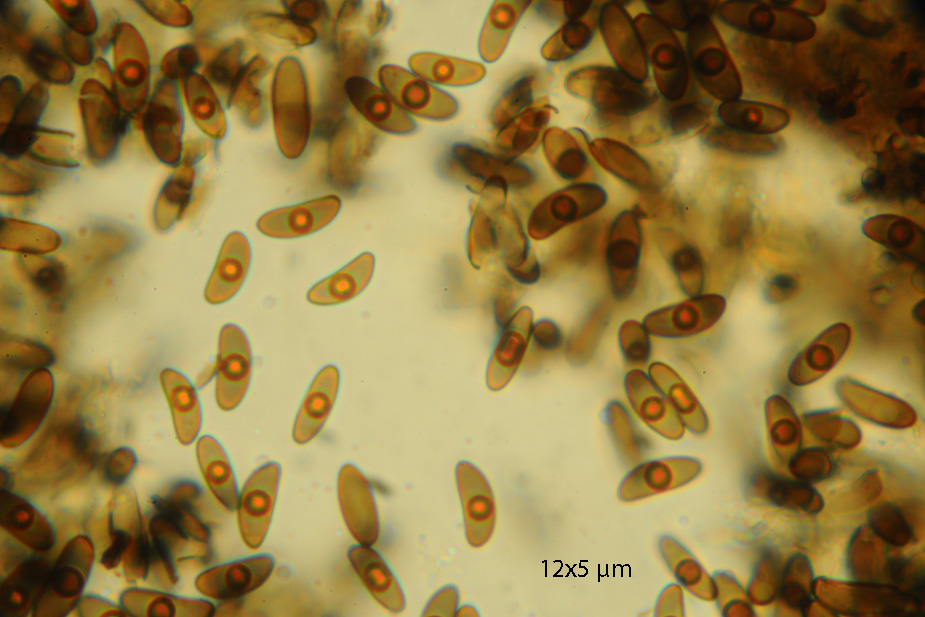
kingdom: Fungi
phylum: Ascomycota
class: Sordariomycetes
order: Xylariales
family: Xylariaceae
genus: Nemania
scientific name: Nemania serpens
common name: almindelig kuldyne
